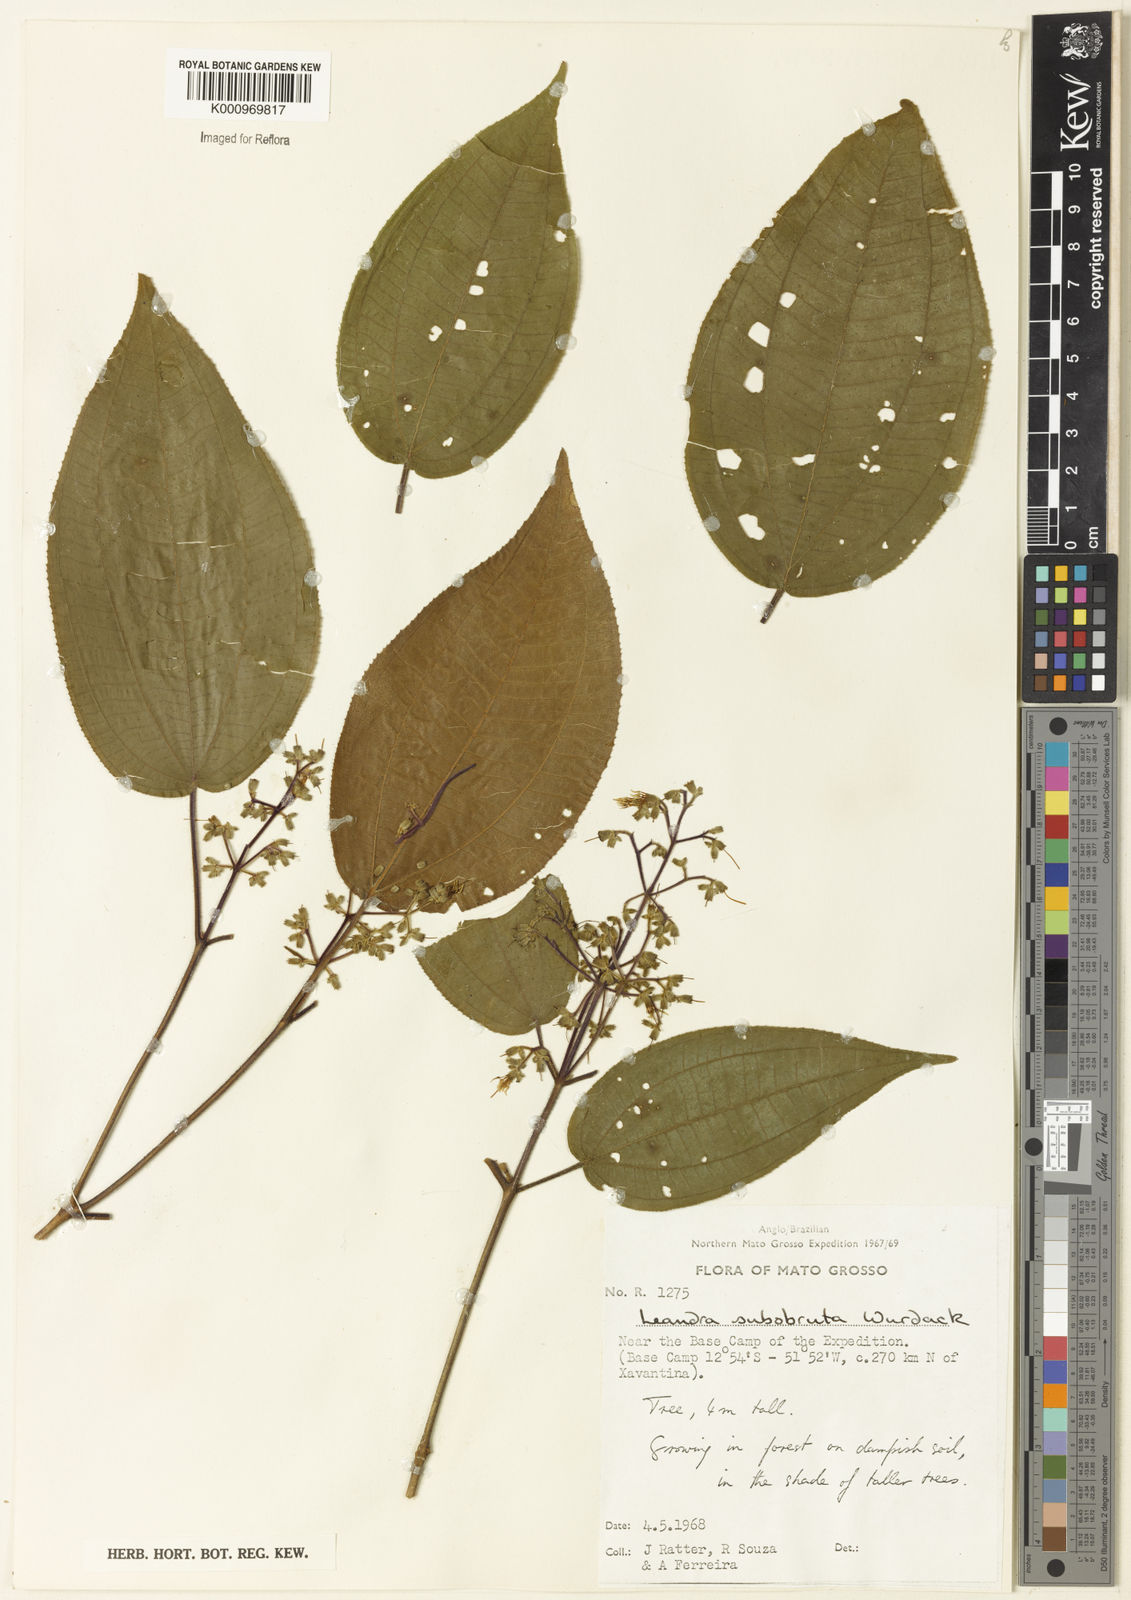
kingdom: Plantae
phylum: Tracheophyta
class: Magnoliopsida
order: Myrtales
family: Melastomataceae
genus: Miconia
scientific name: Miconia subobruta
